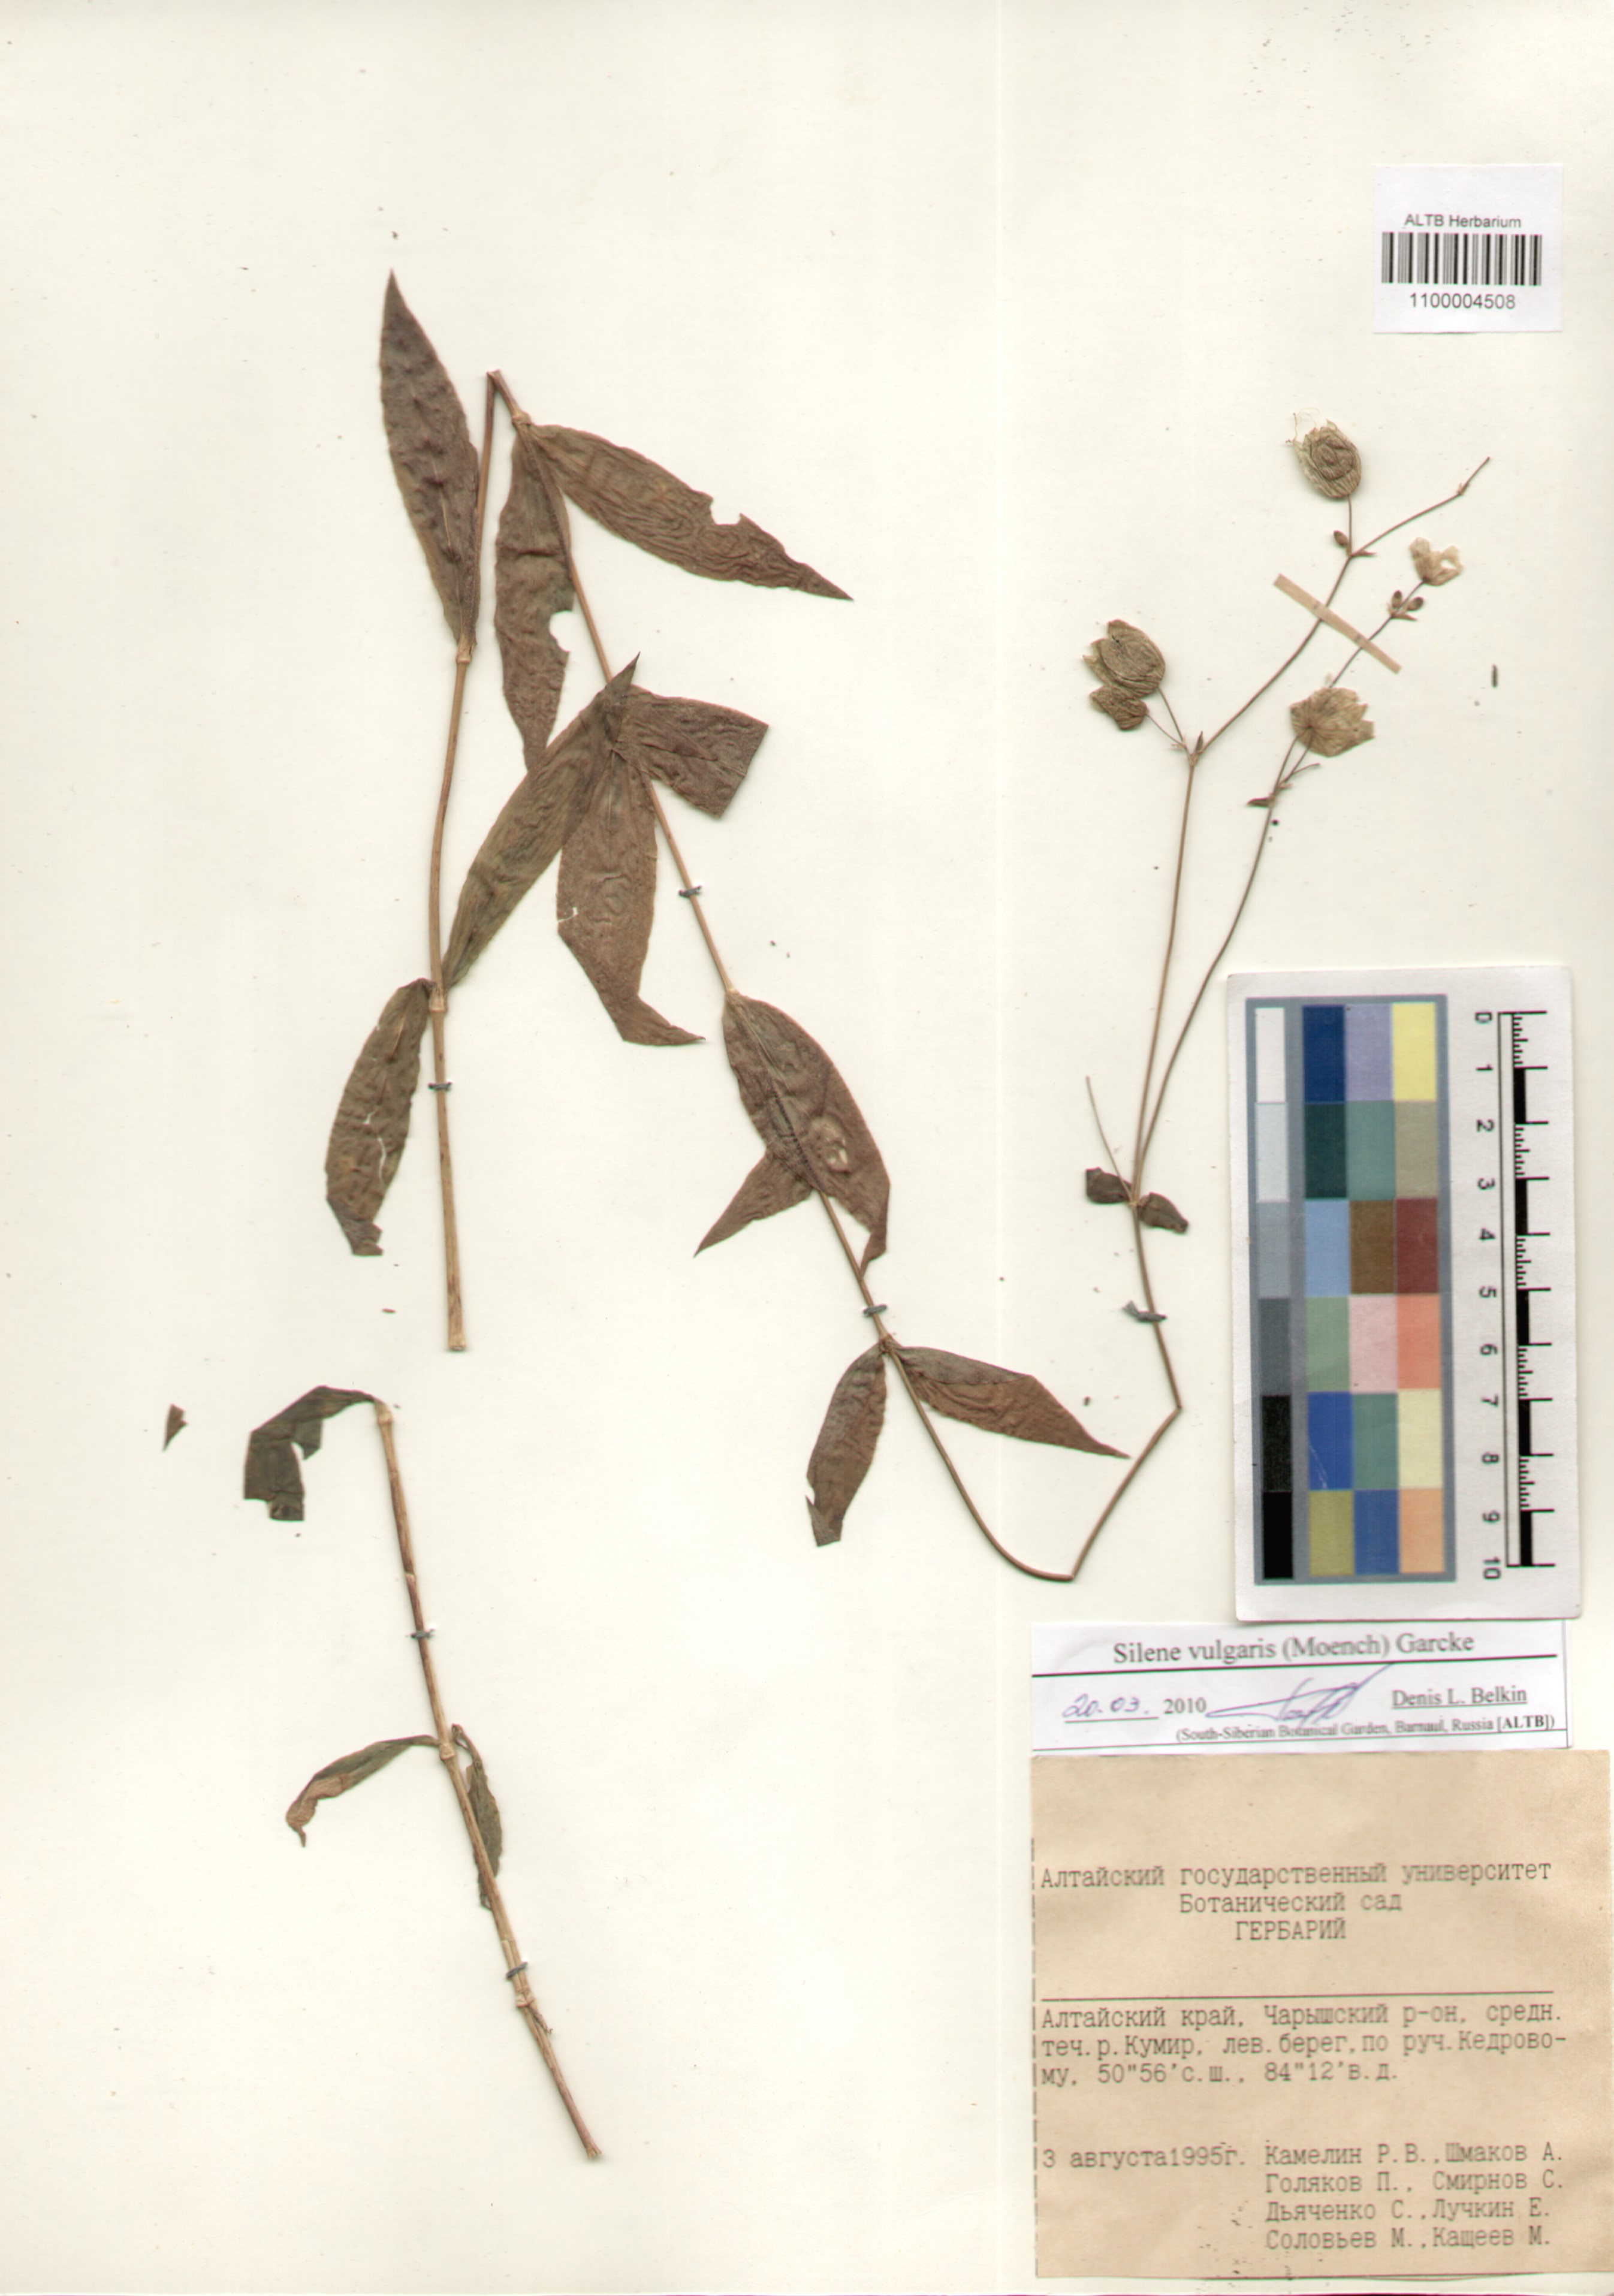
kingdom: Plantae
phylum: Tracheophyta
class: Magnoliopsida
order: Caryophyllales
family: Caryophyllaceae
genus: Silene
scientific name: Silene vulgaris
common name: Bladder campion
